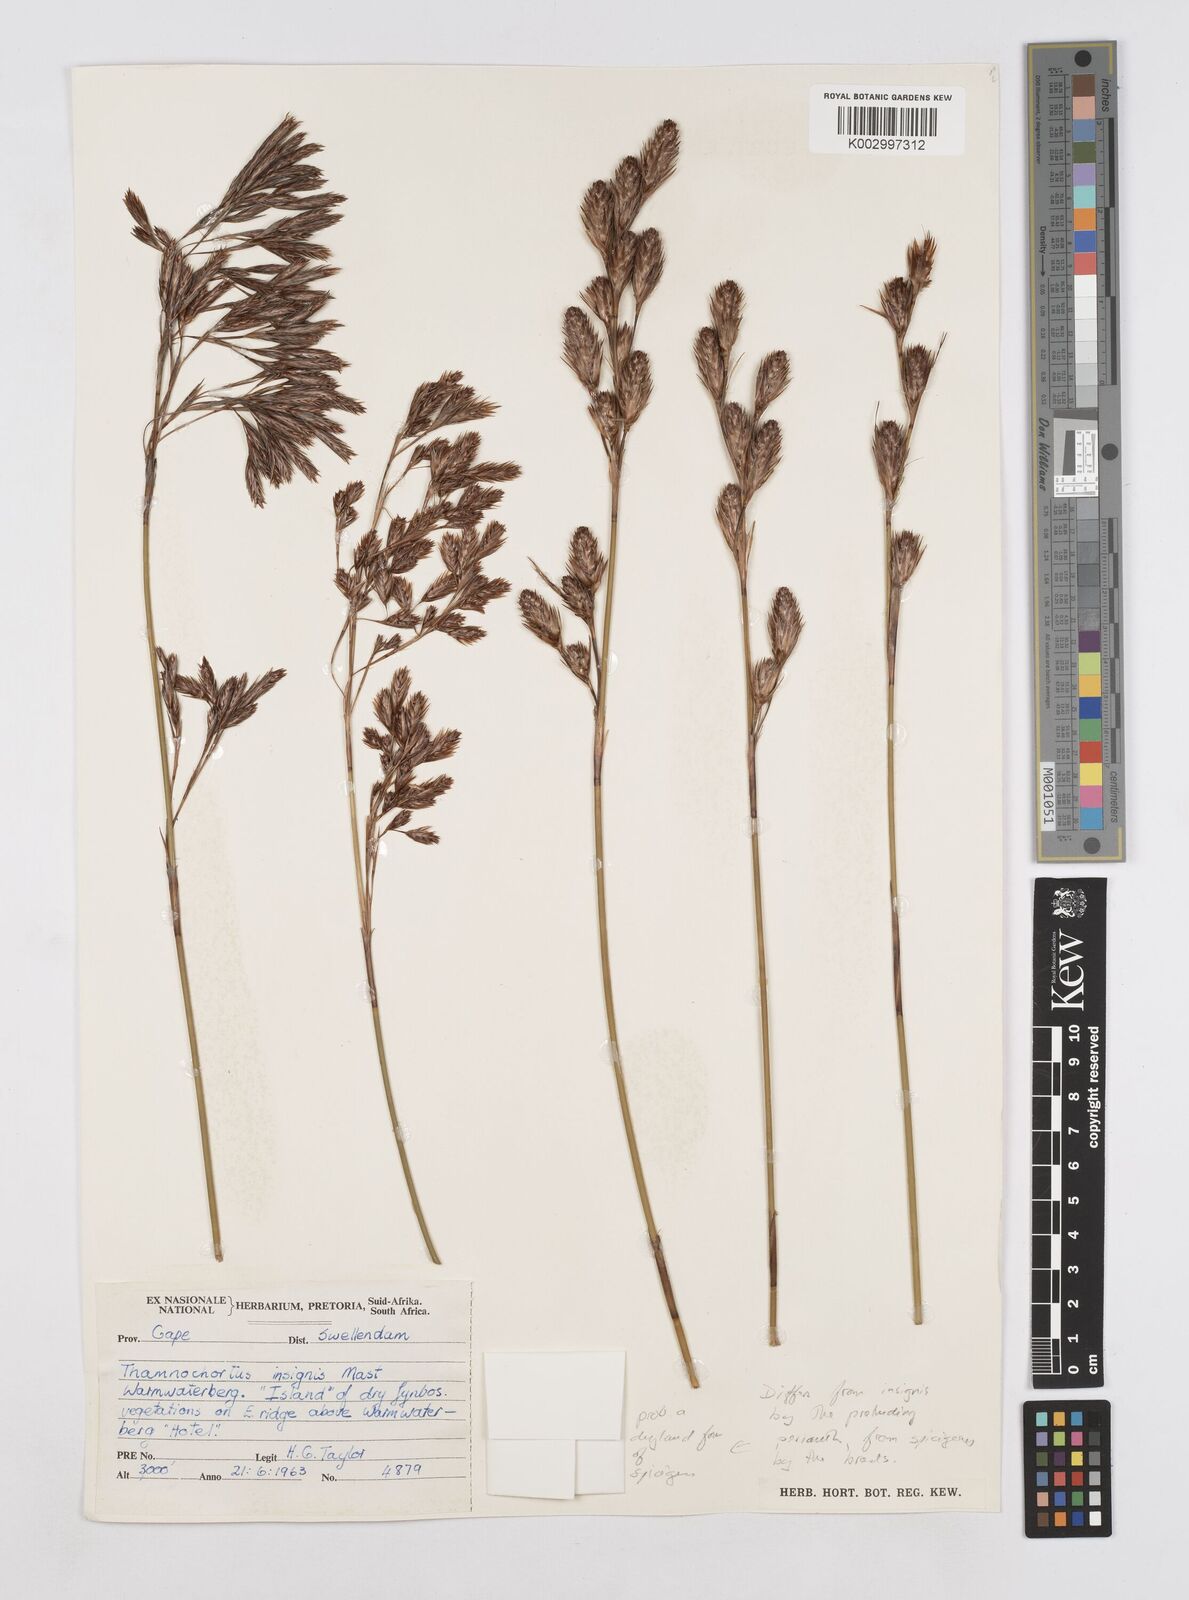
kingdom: Plantae
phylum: Tracheophyta
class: Liliopsida
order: Poales
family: Restionaceae
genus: Thamnochortus
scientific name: Thamnochortus
